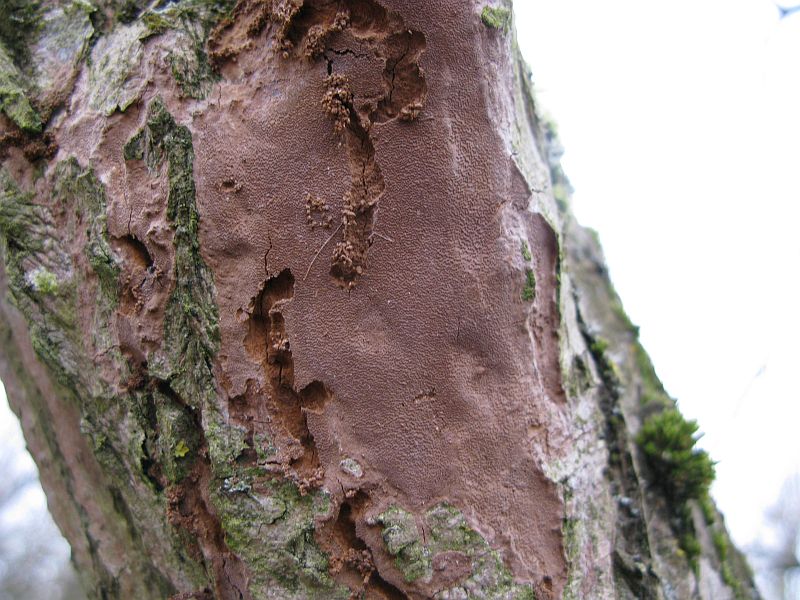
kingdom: Fungi
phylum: Basidiomycota
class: Agaricomycetes
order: Hymenochaetales
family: Hymenochaetaceae
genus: Fuscoporia
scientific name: Fuscoporia ferrea
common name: skorpe-ildporesvamp
